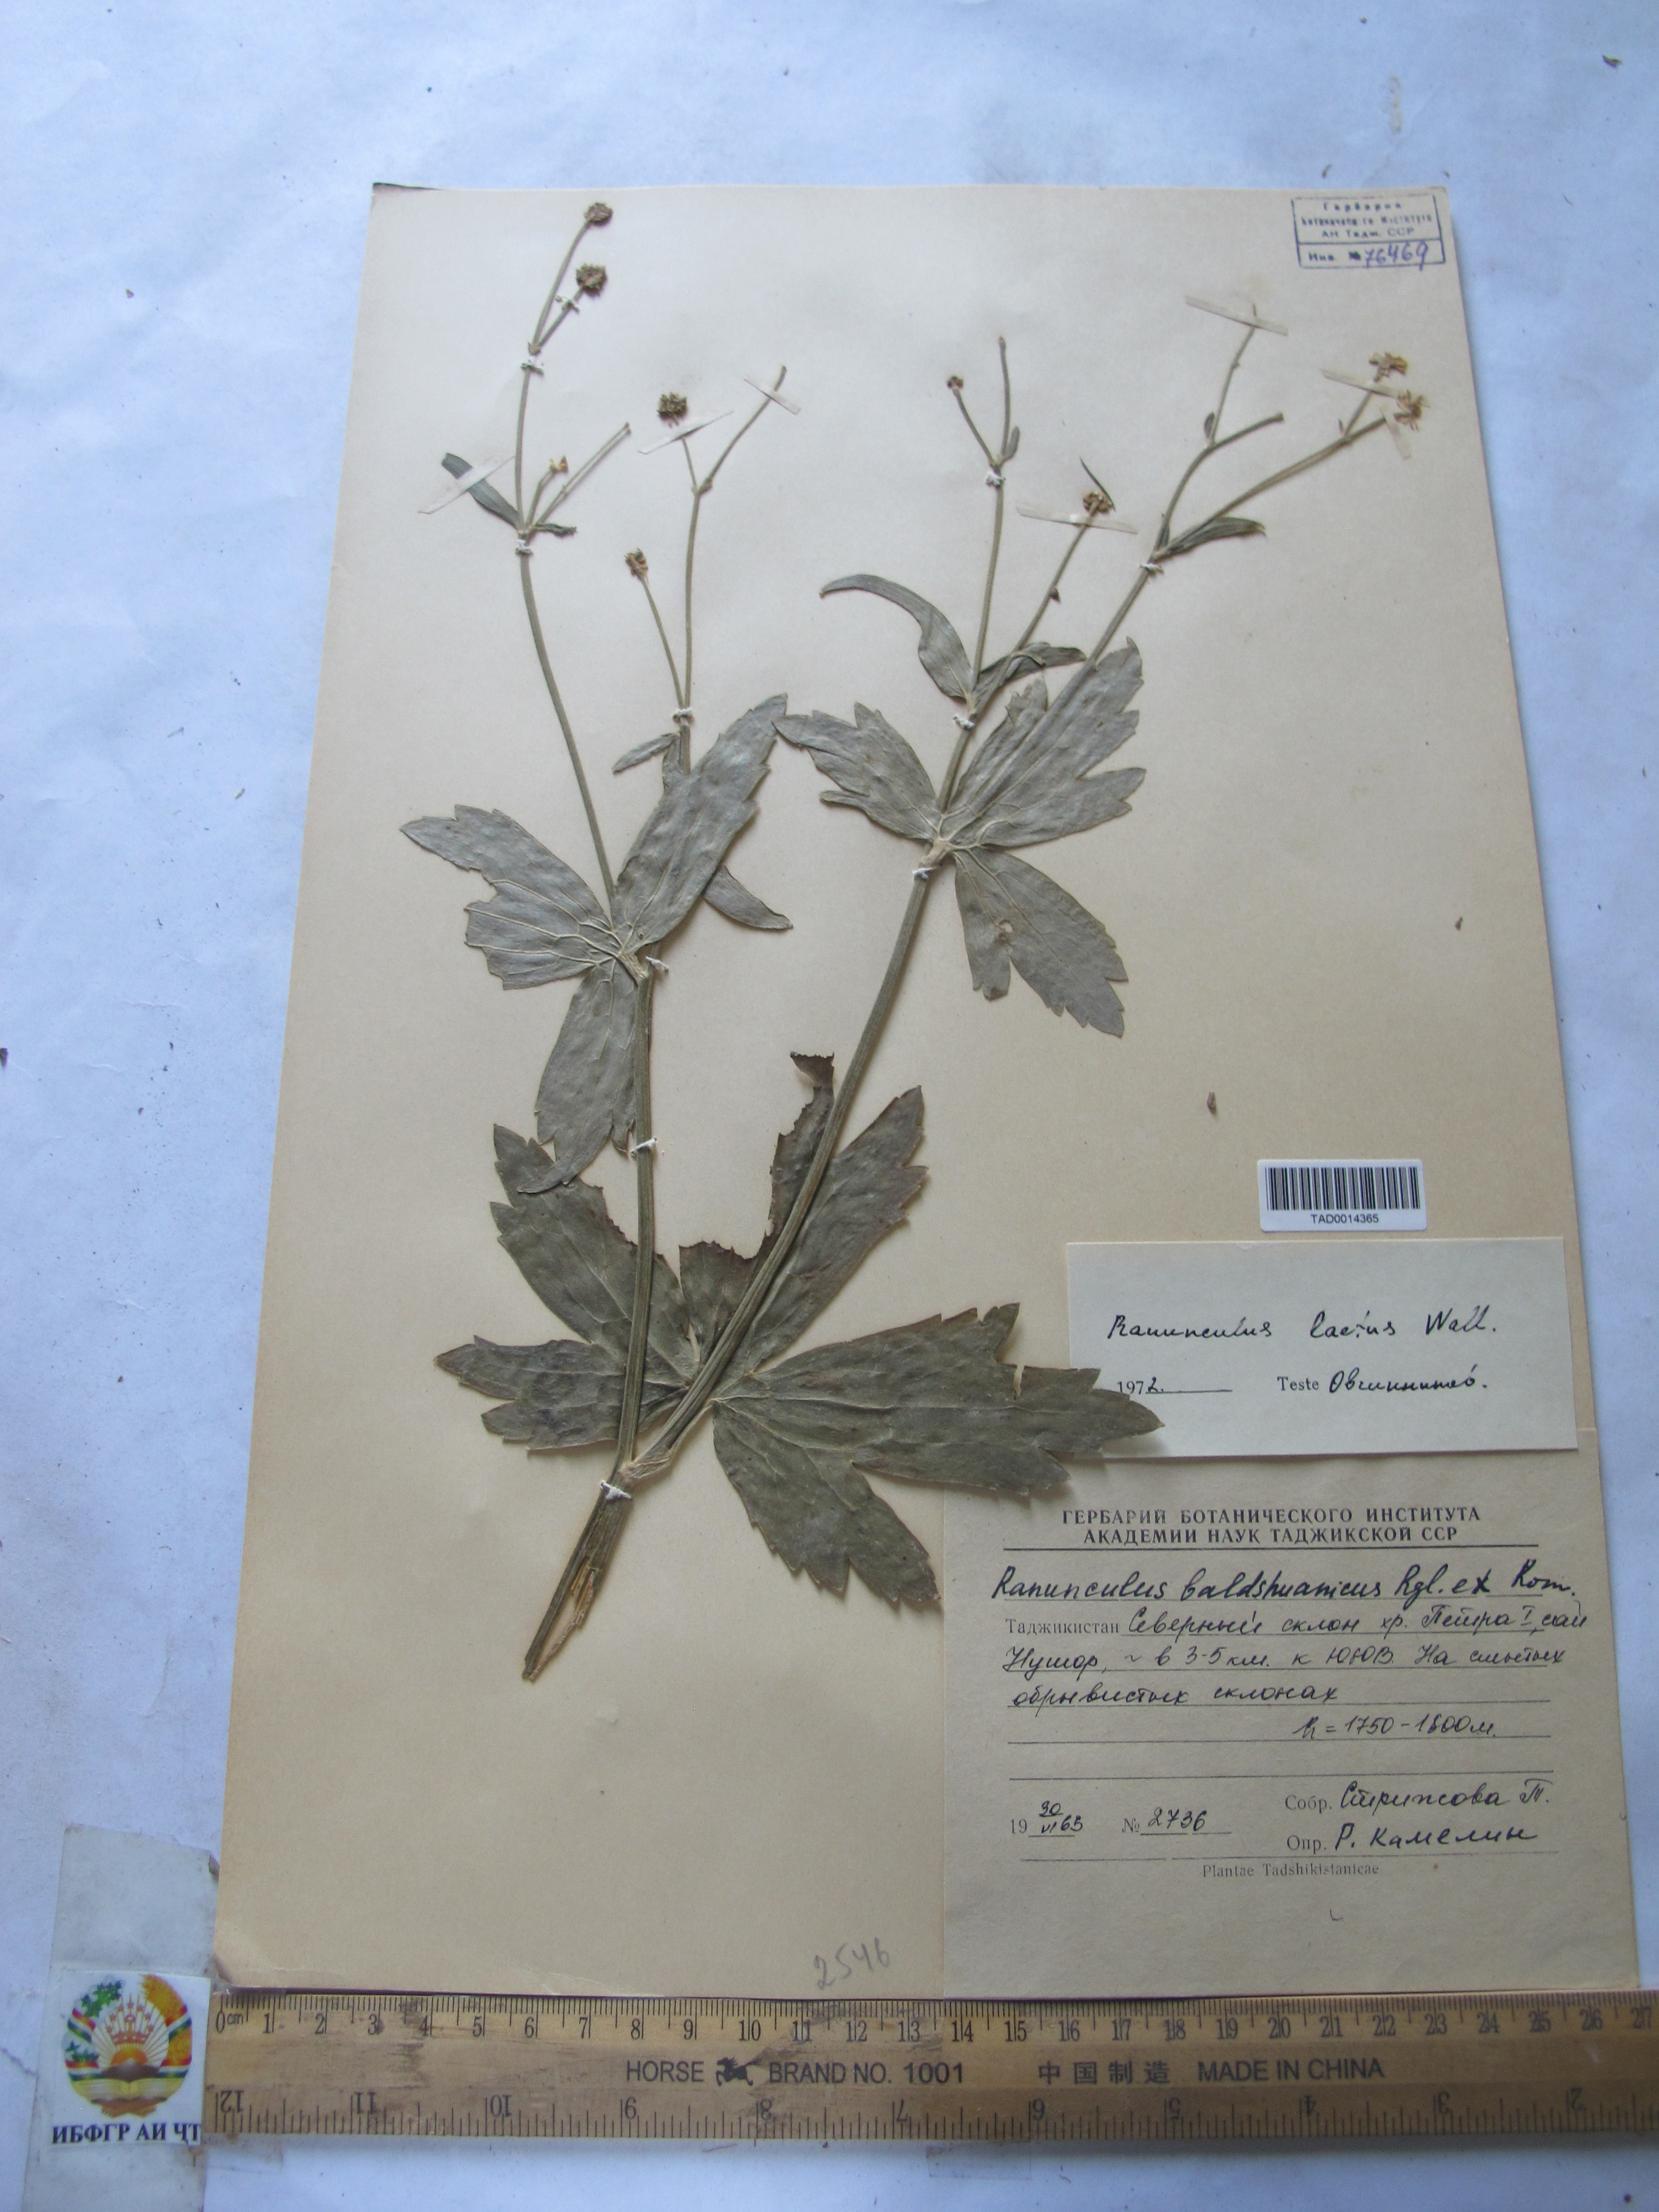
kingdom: Plantae
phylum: Tracheophyta
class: Magnoliopsida
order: Ranunculales
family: Ranunculaceae
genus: Ranunculus
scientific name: Ranunculus distans
